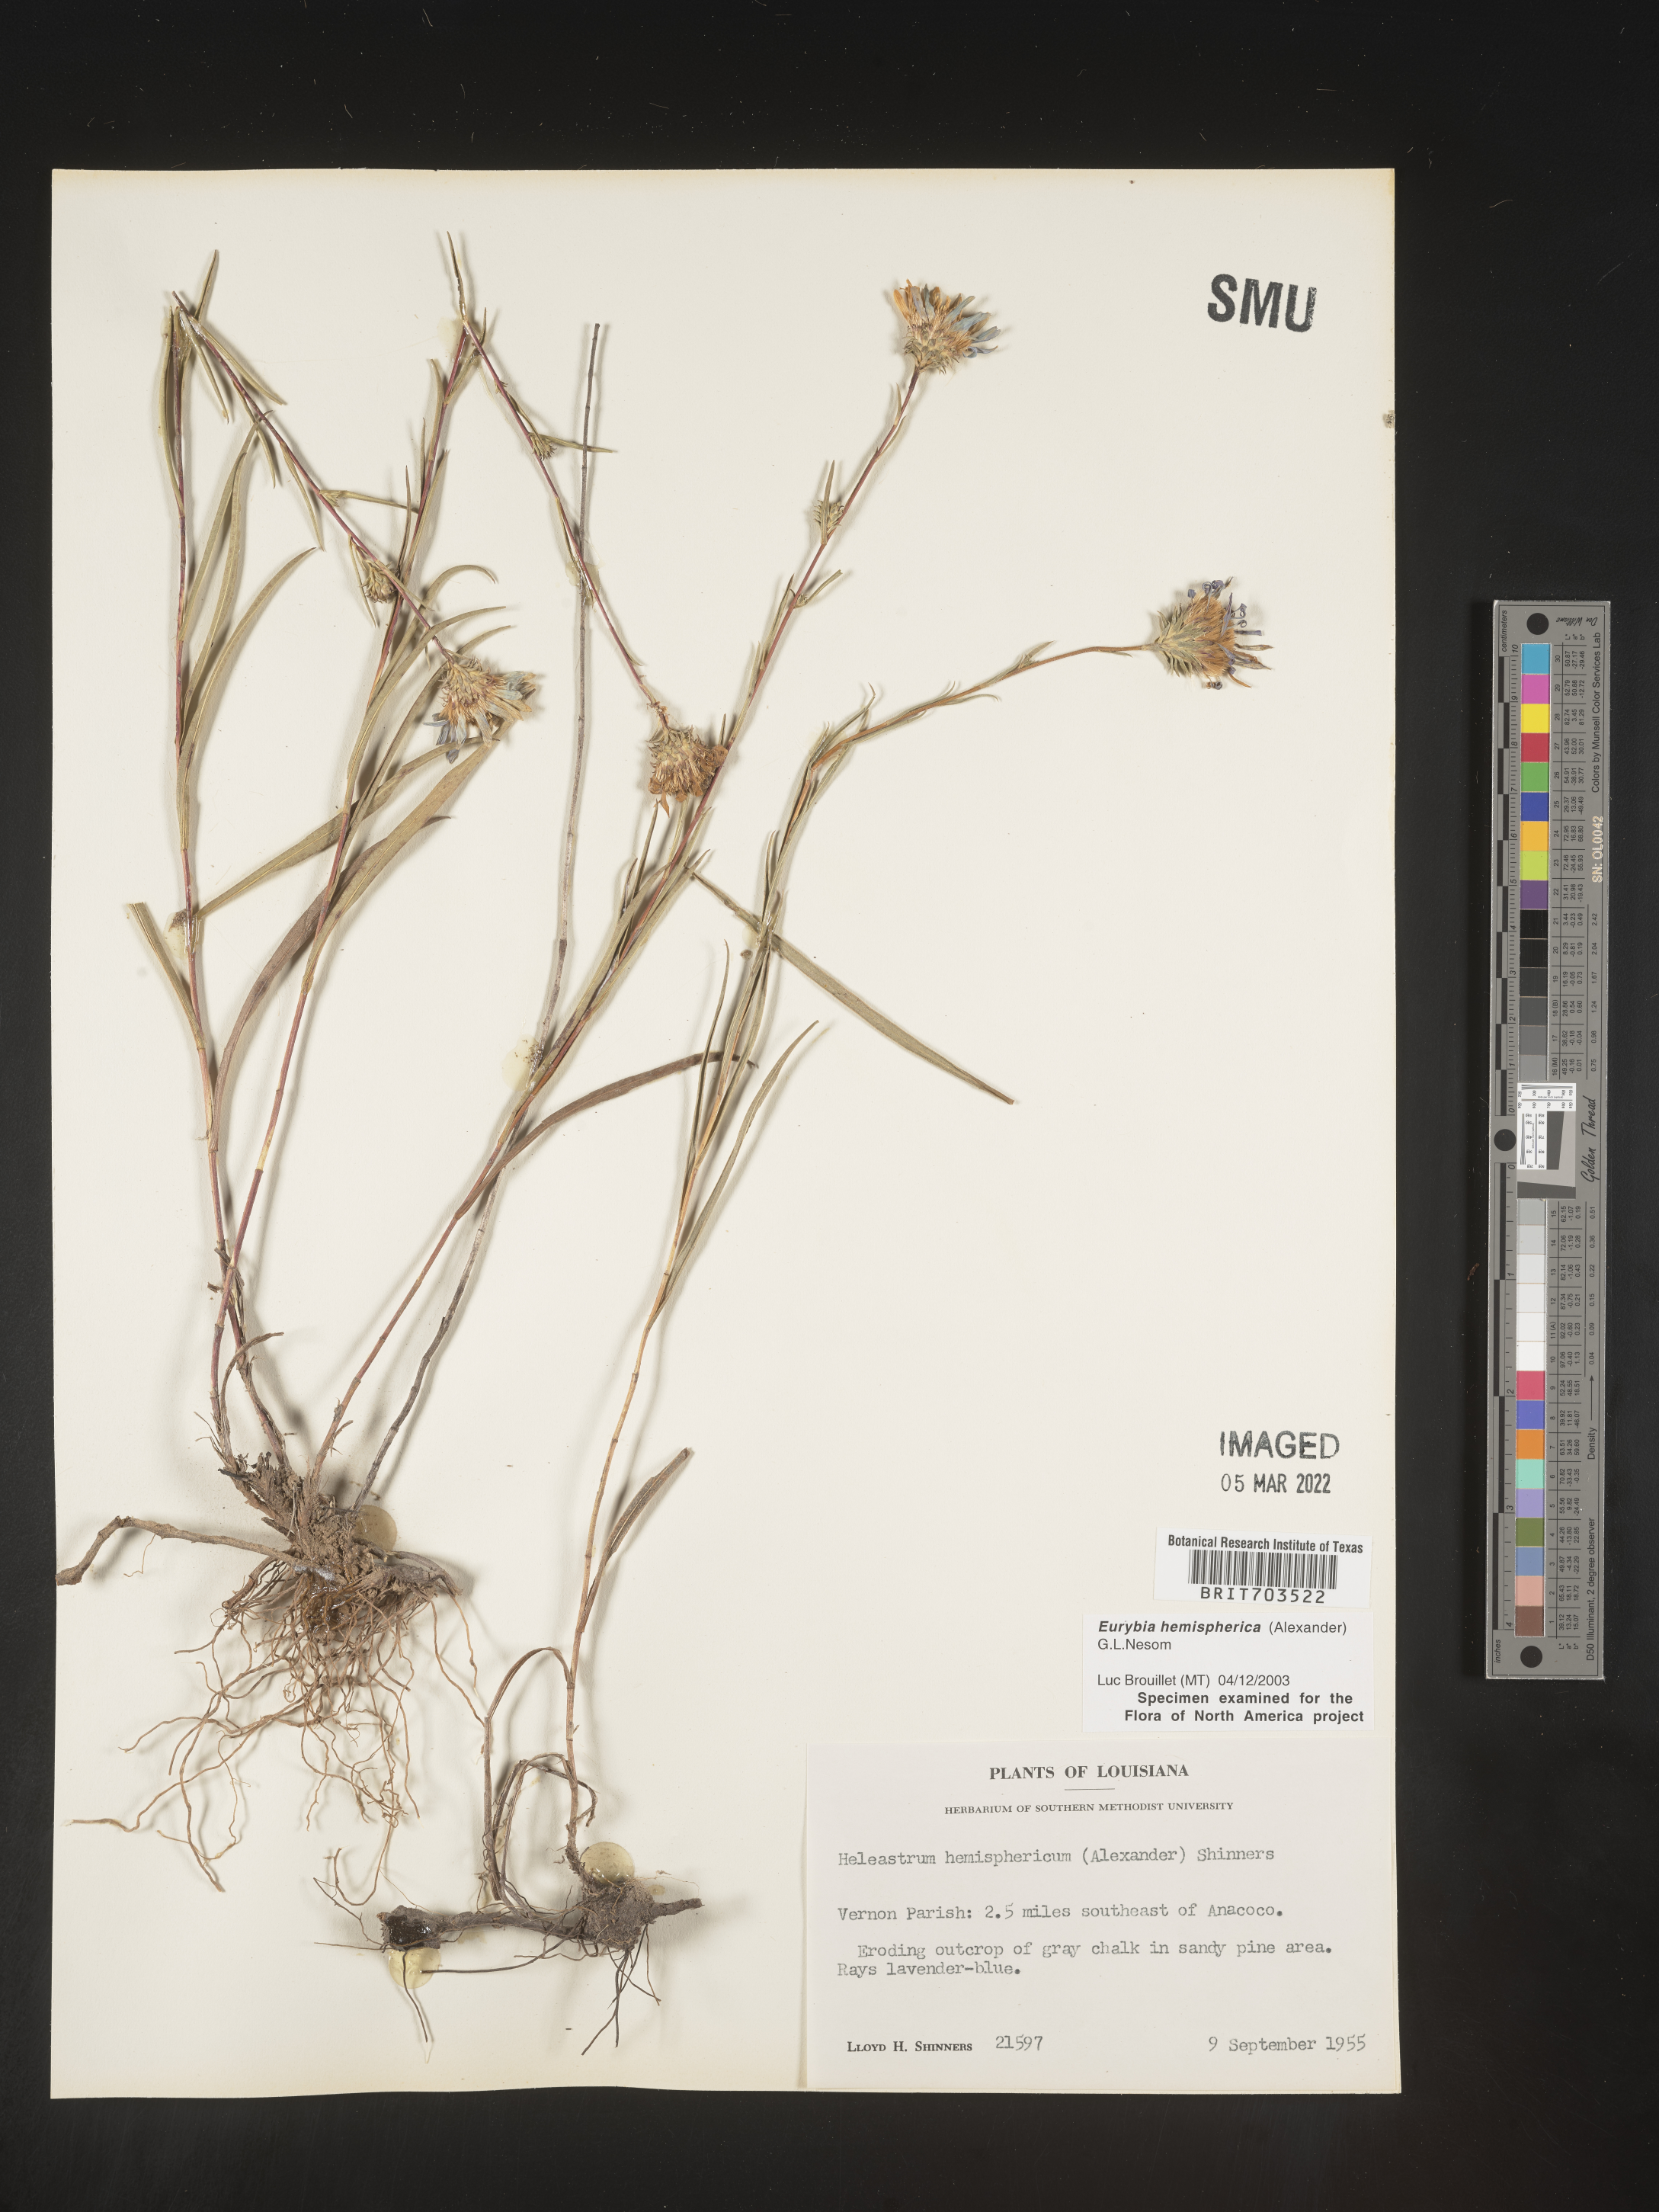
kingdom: Plantae
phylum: Tracheophyta
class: Magnoliopsida
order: Asterales
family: Asteraceae
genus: Eurybia
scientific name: Eurybia hemispherica
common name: Showy aster
